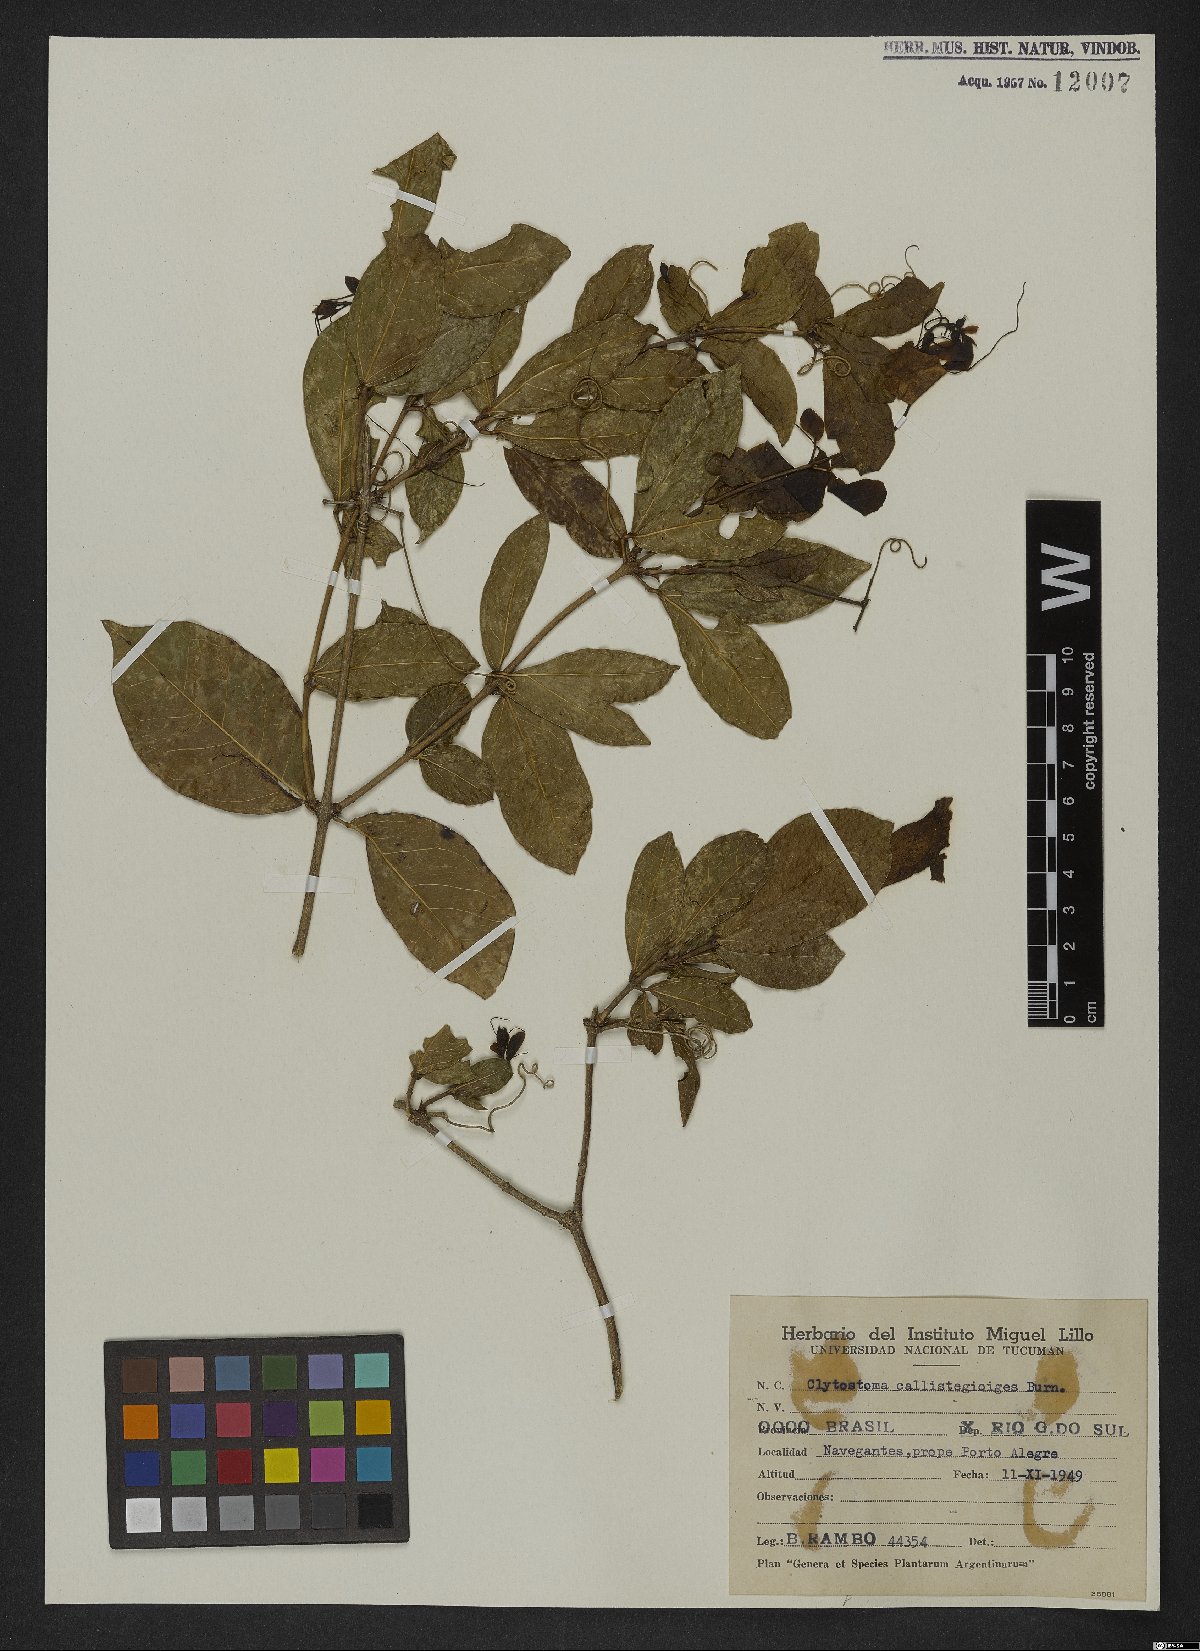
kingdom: Plantae
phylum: Tracheophyta
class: Magnoliopsida
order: Lamiales
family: Bignoniaceae
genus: Bignonia
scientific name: Bignonia callistegioides
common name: Argentine trumpetvine
